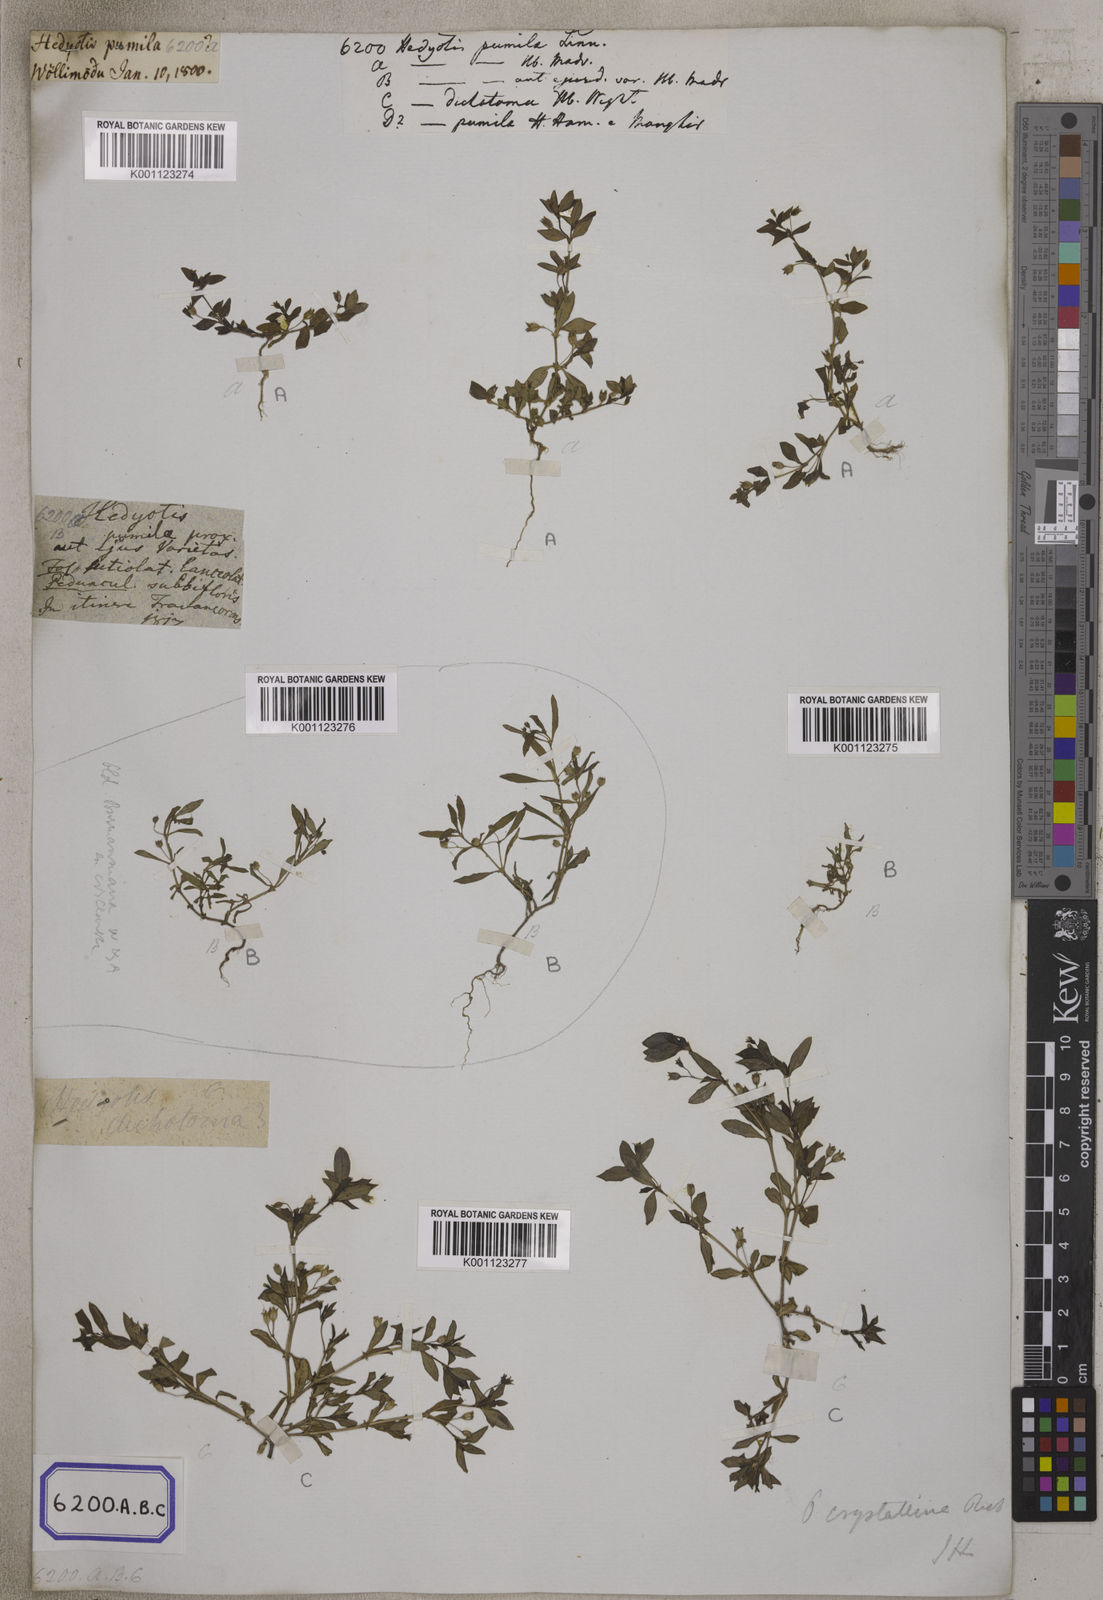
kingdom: Plantae
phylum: Tracheophyta
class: Magnoliopsida
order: Gentianales
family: Rubiaceae
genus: Oldenlandia
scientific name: Oldenlandia pumila
